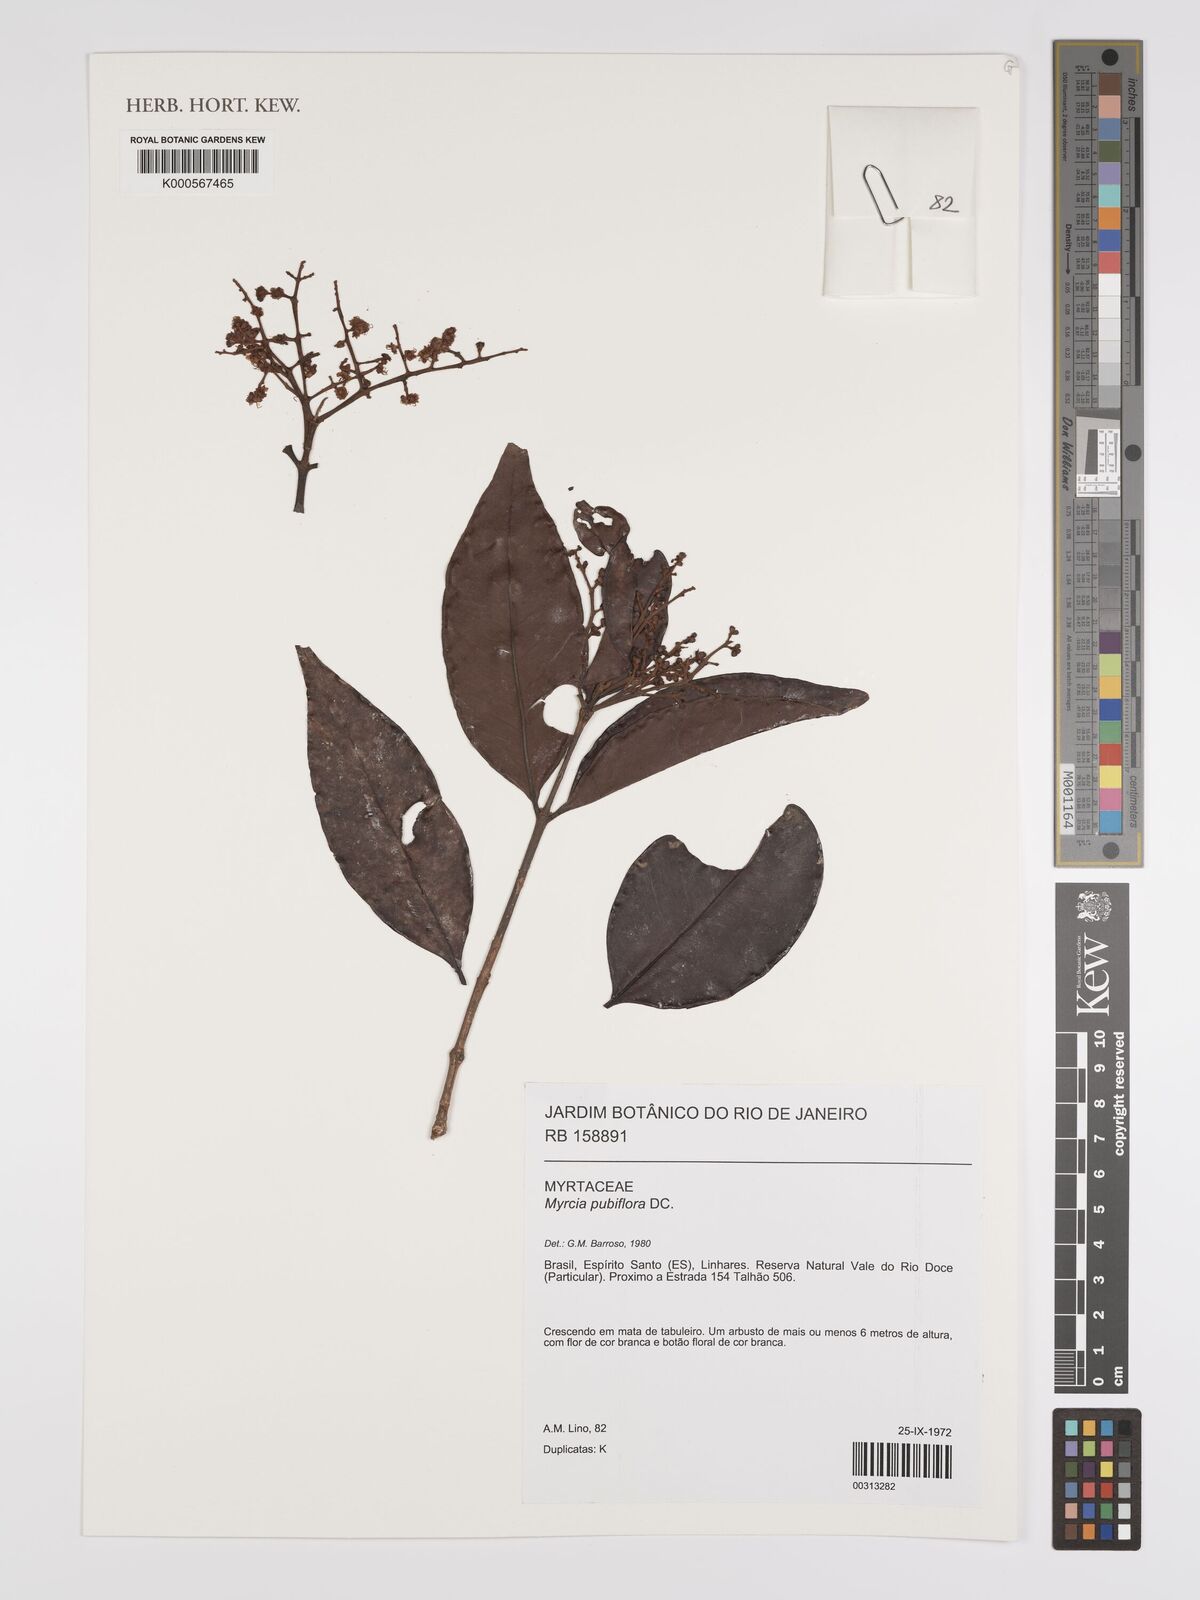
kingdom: Plantae
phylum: Tracheophyta
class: Magnoliopsida
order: Myrtales
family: Myrtaceae
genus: Myrcia
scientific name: Myrcia pubiflora
